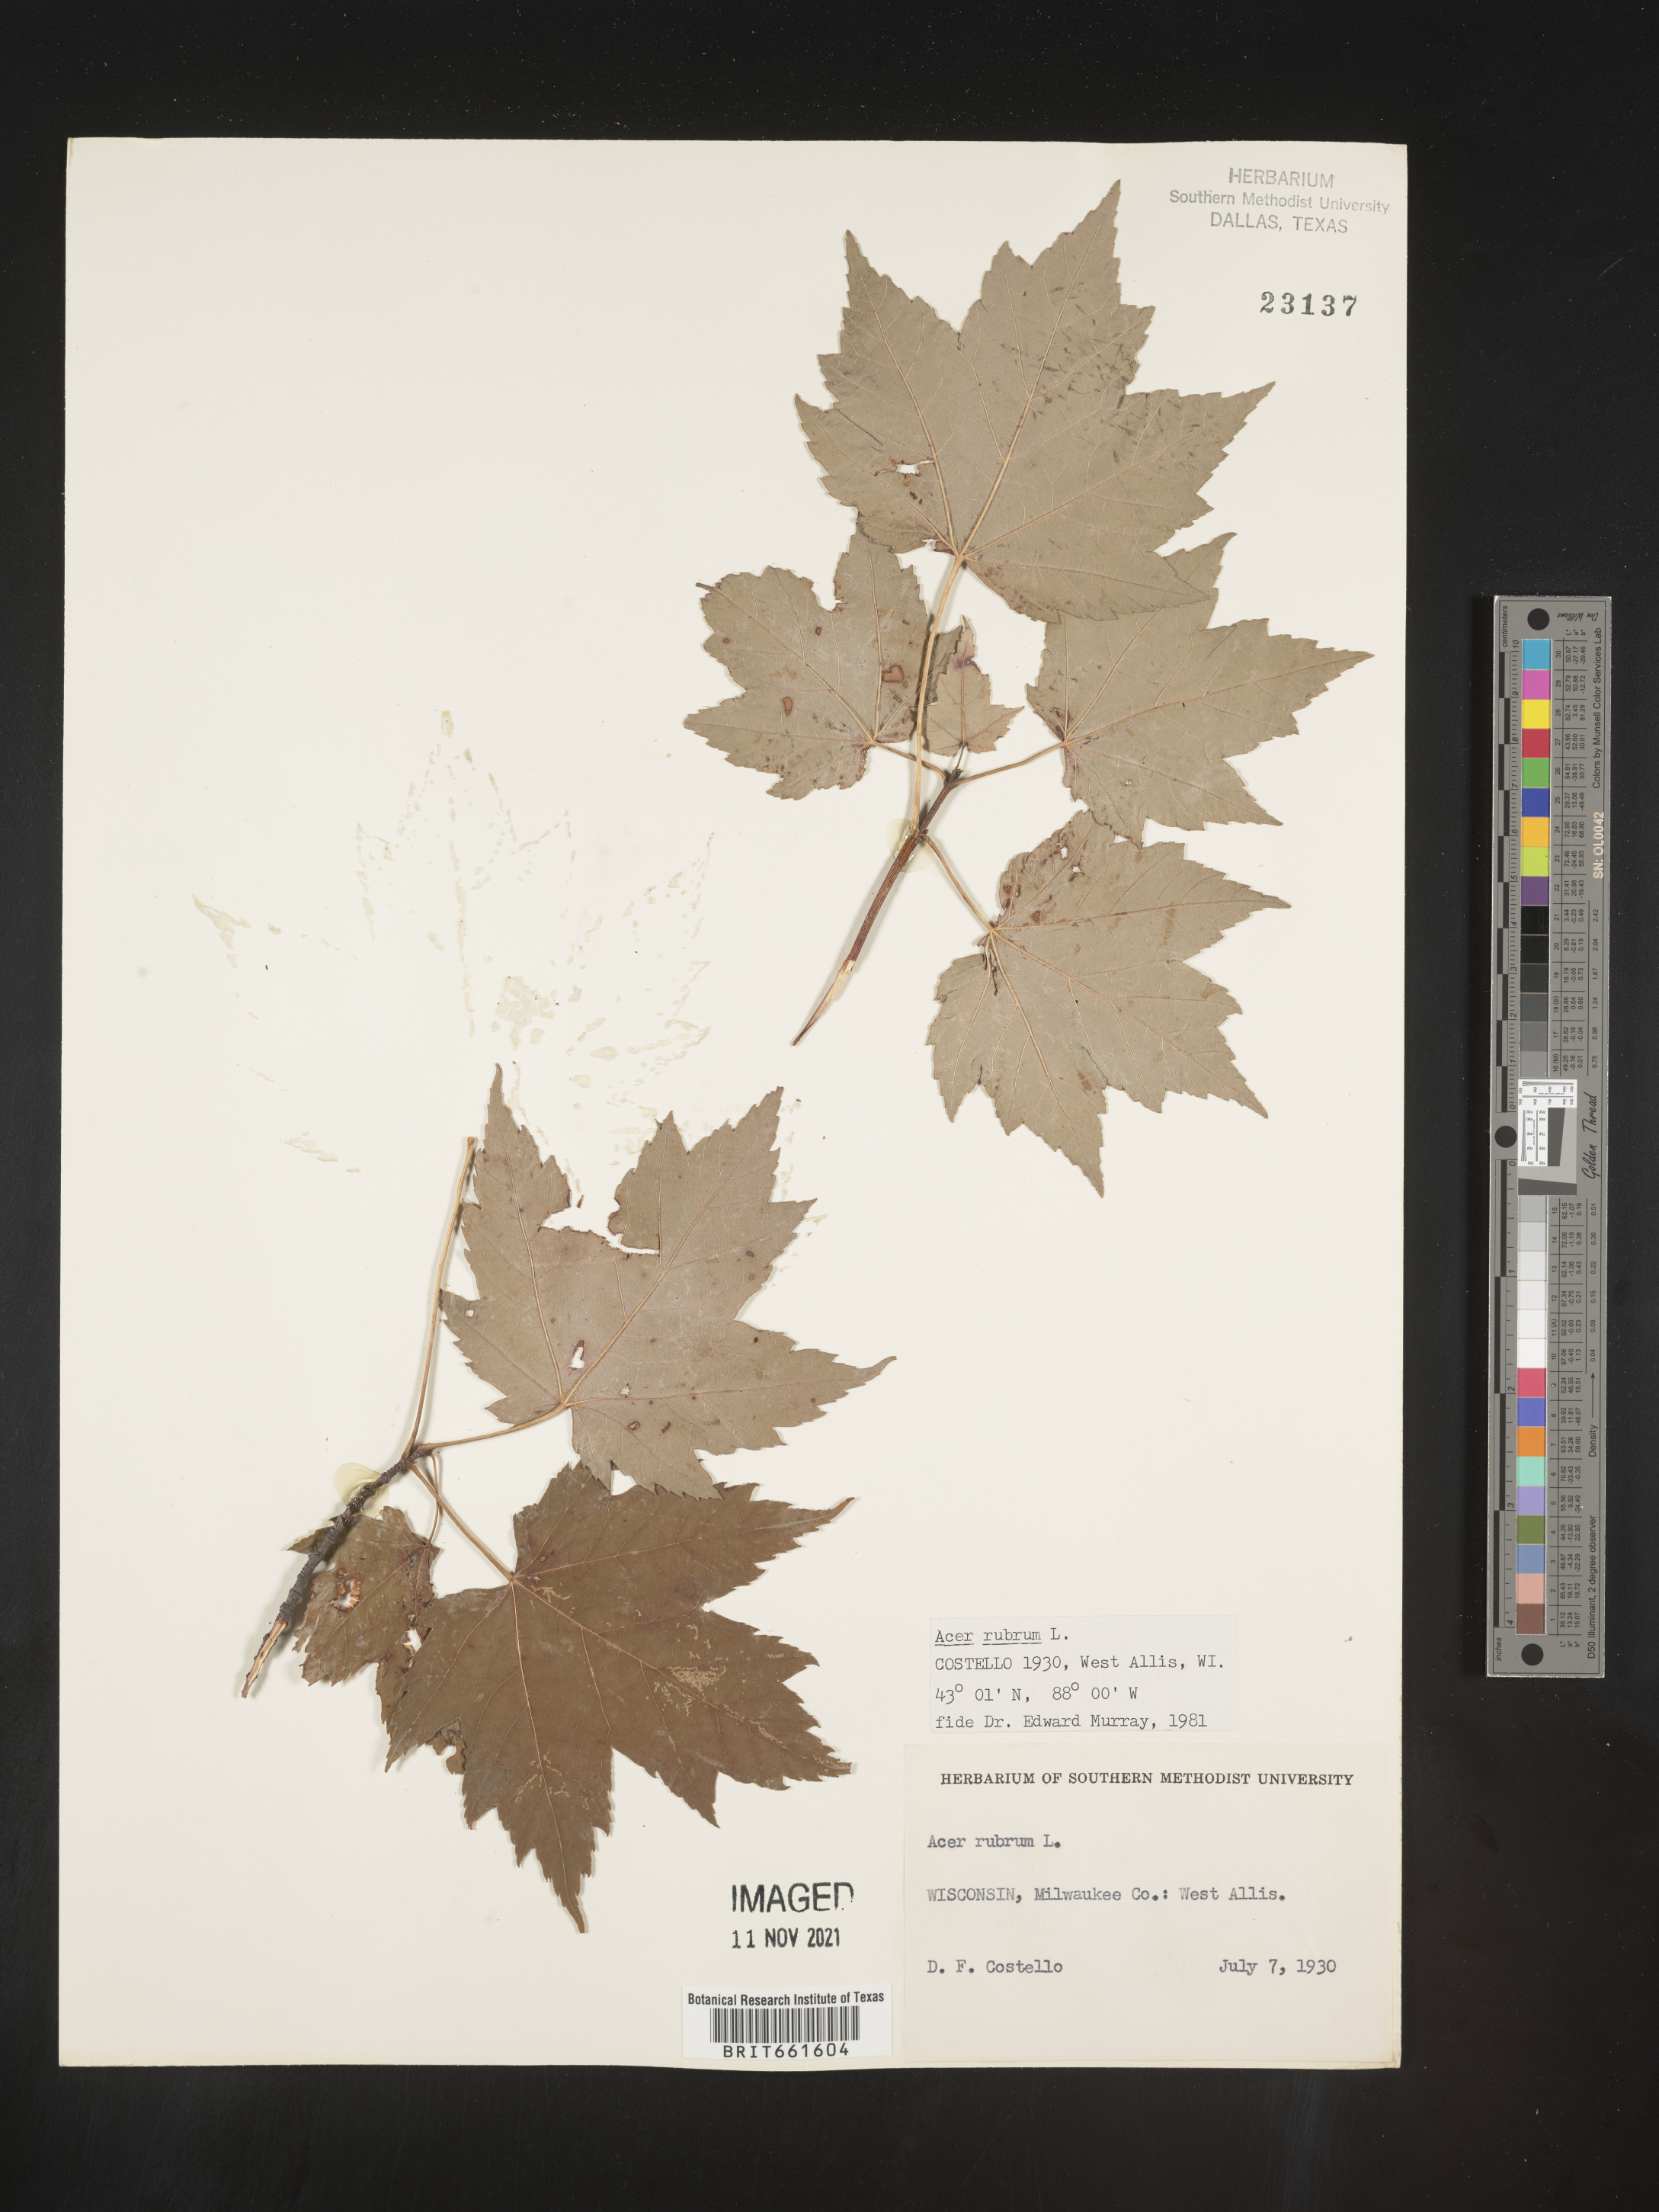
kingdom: Plantae
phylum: Tracheophyta
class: Magnoliopsida
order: Sapindales
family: Sapindaceae
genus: Acer
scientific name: Acer rubrum
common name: Red maple
